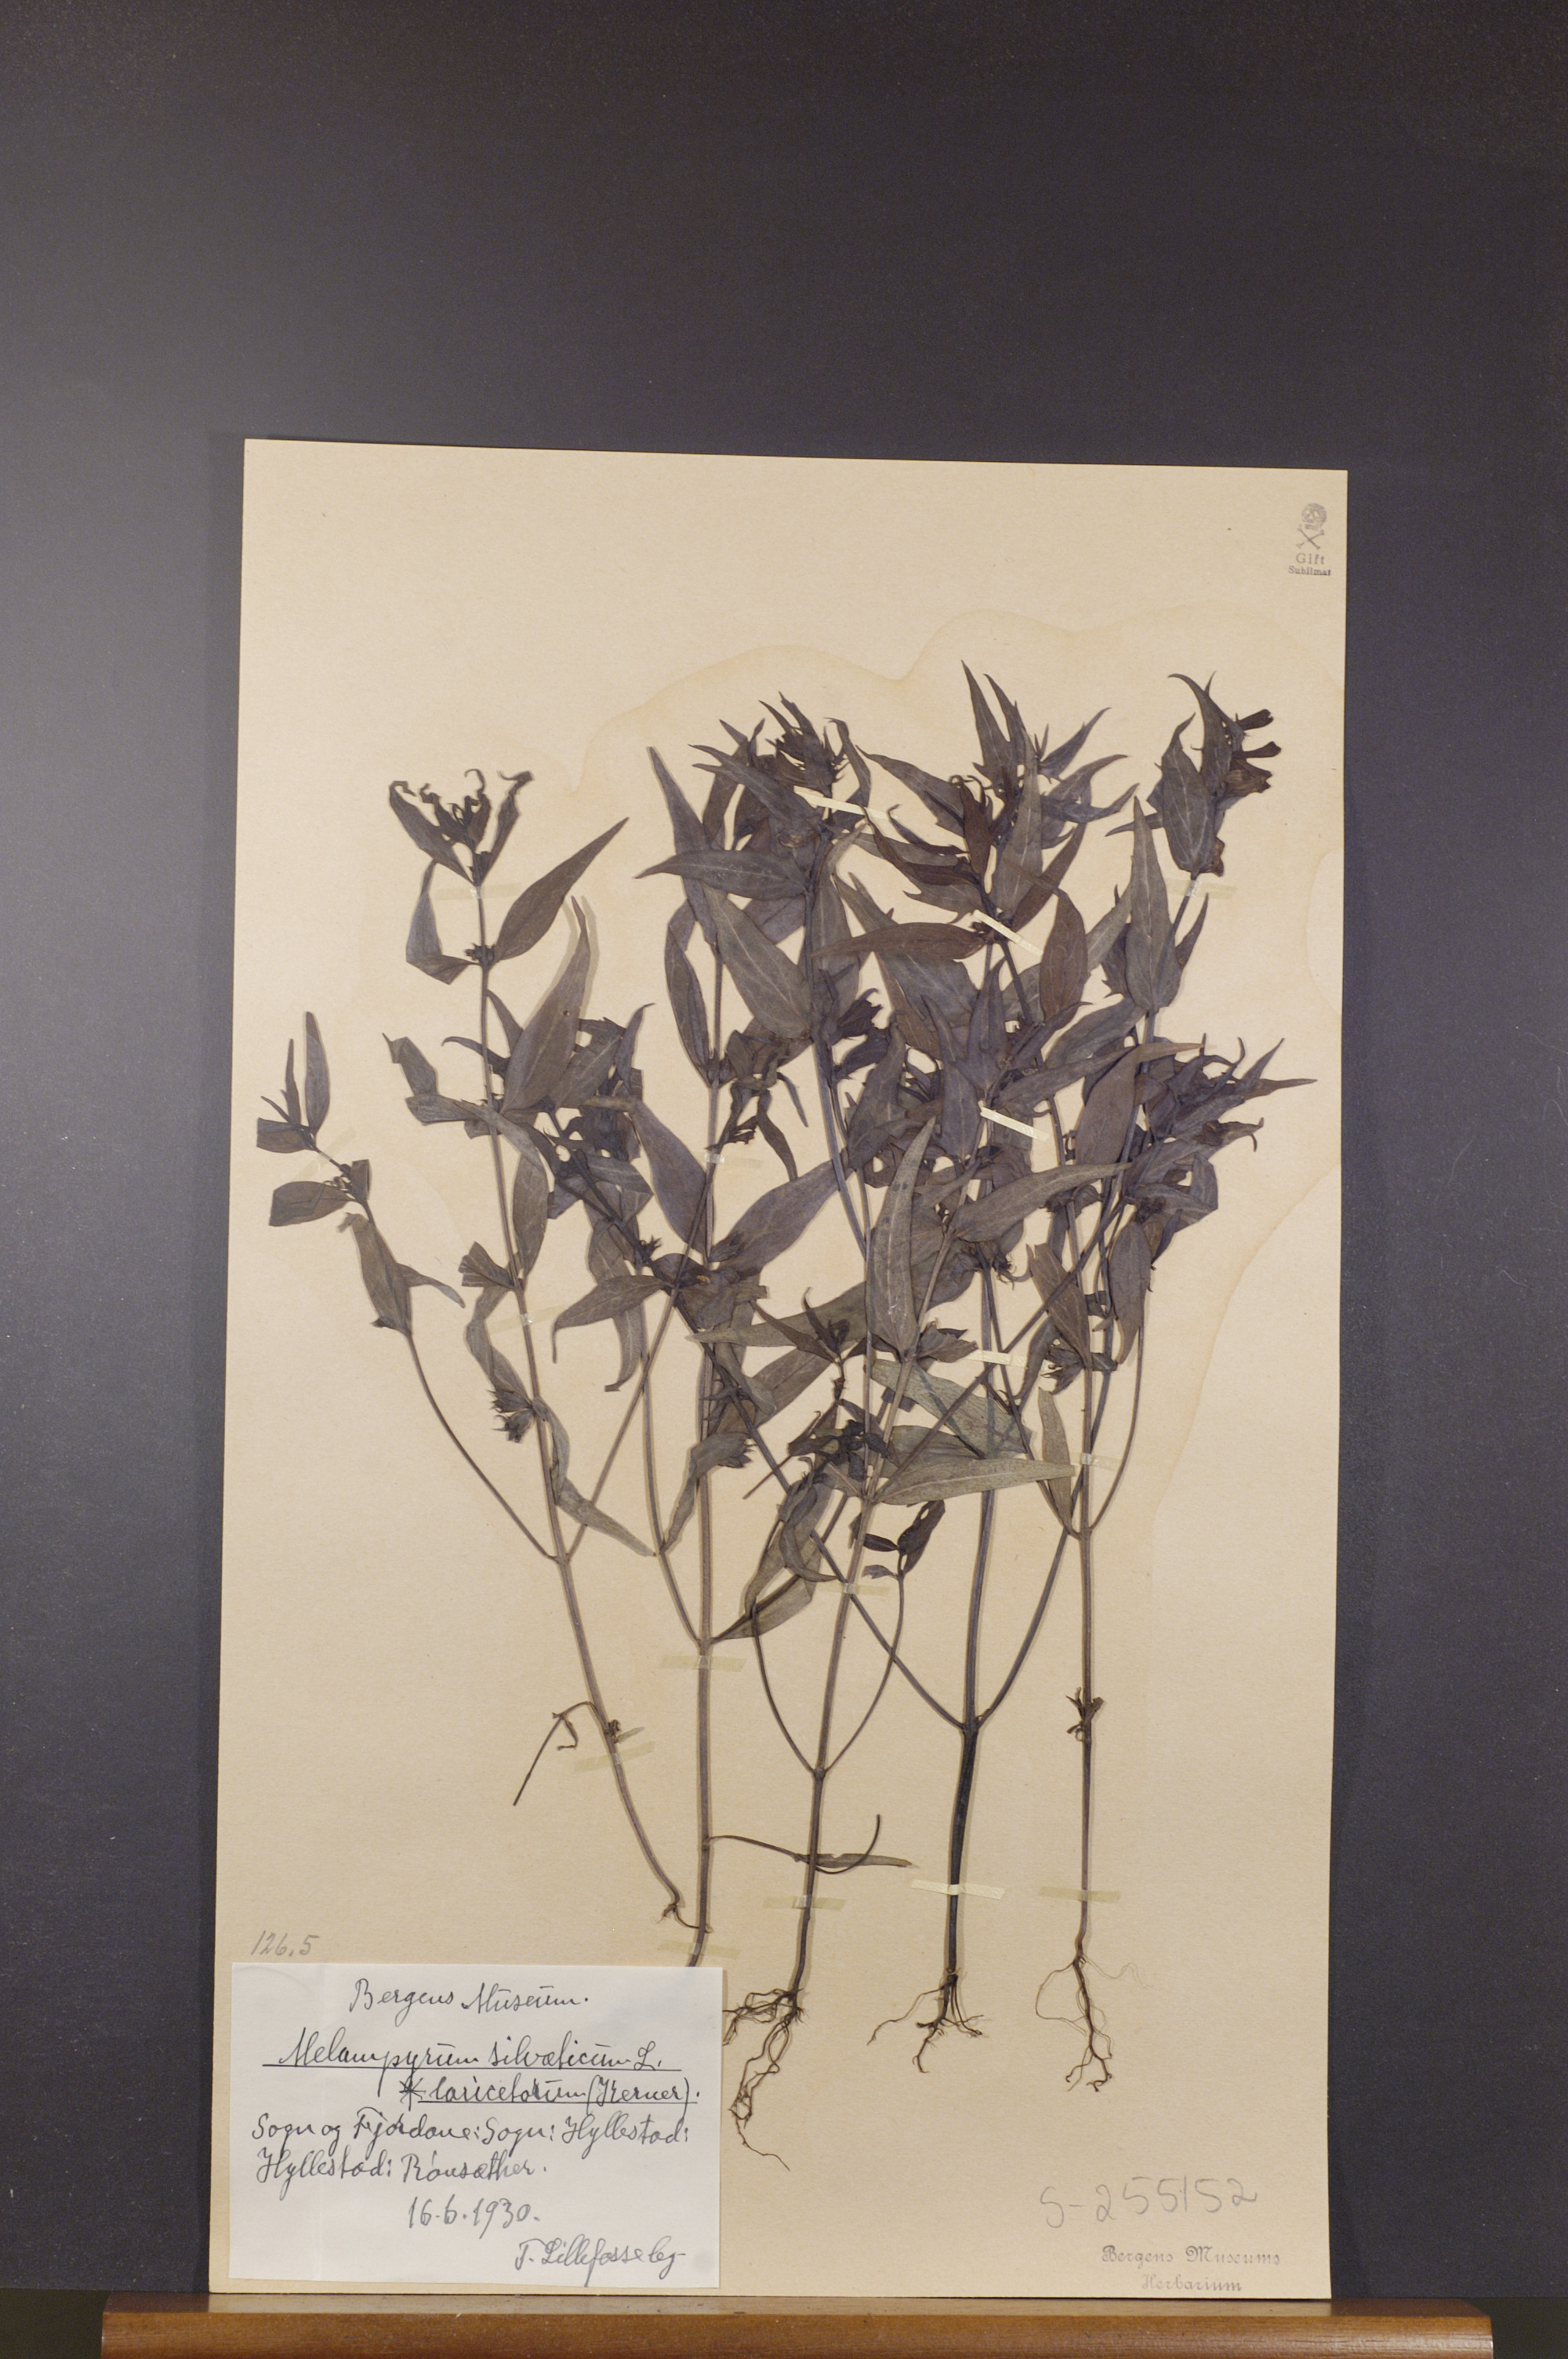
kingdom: Plantae
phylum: Tracheophyta
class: Magnoliopsida
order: Lamiales
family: Orobanchaceae
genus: Melampyrum
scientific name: Melampyrum sylvaticum
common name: Small cow-wheat
